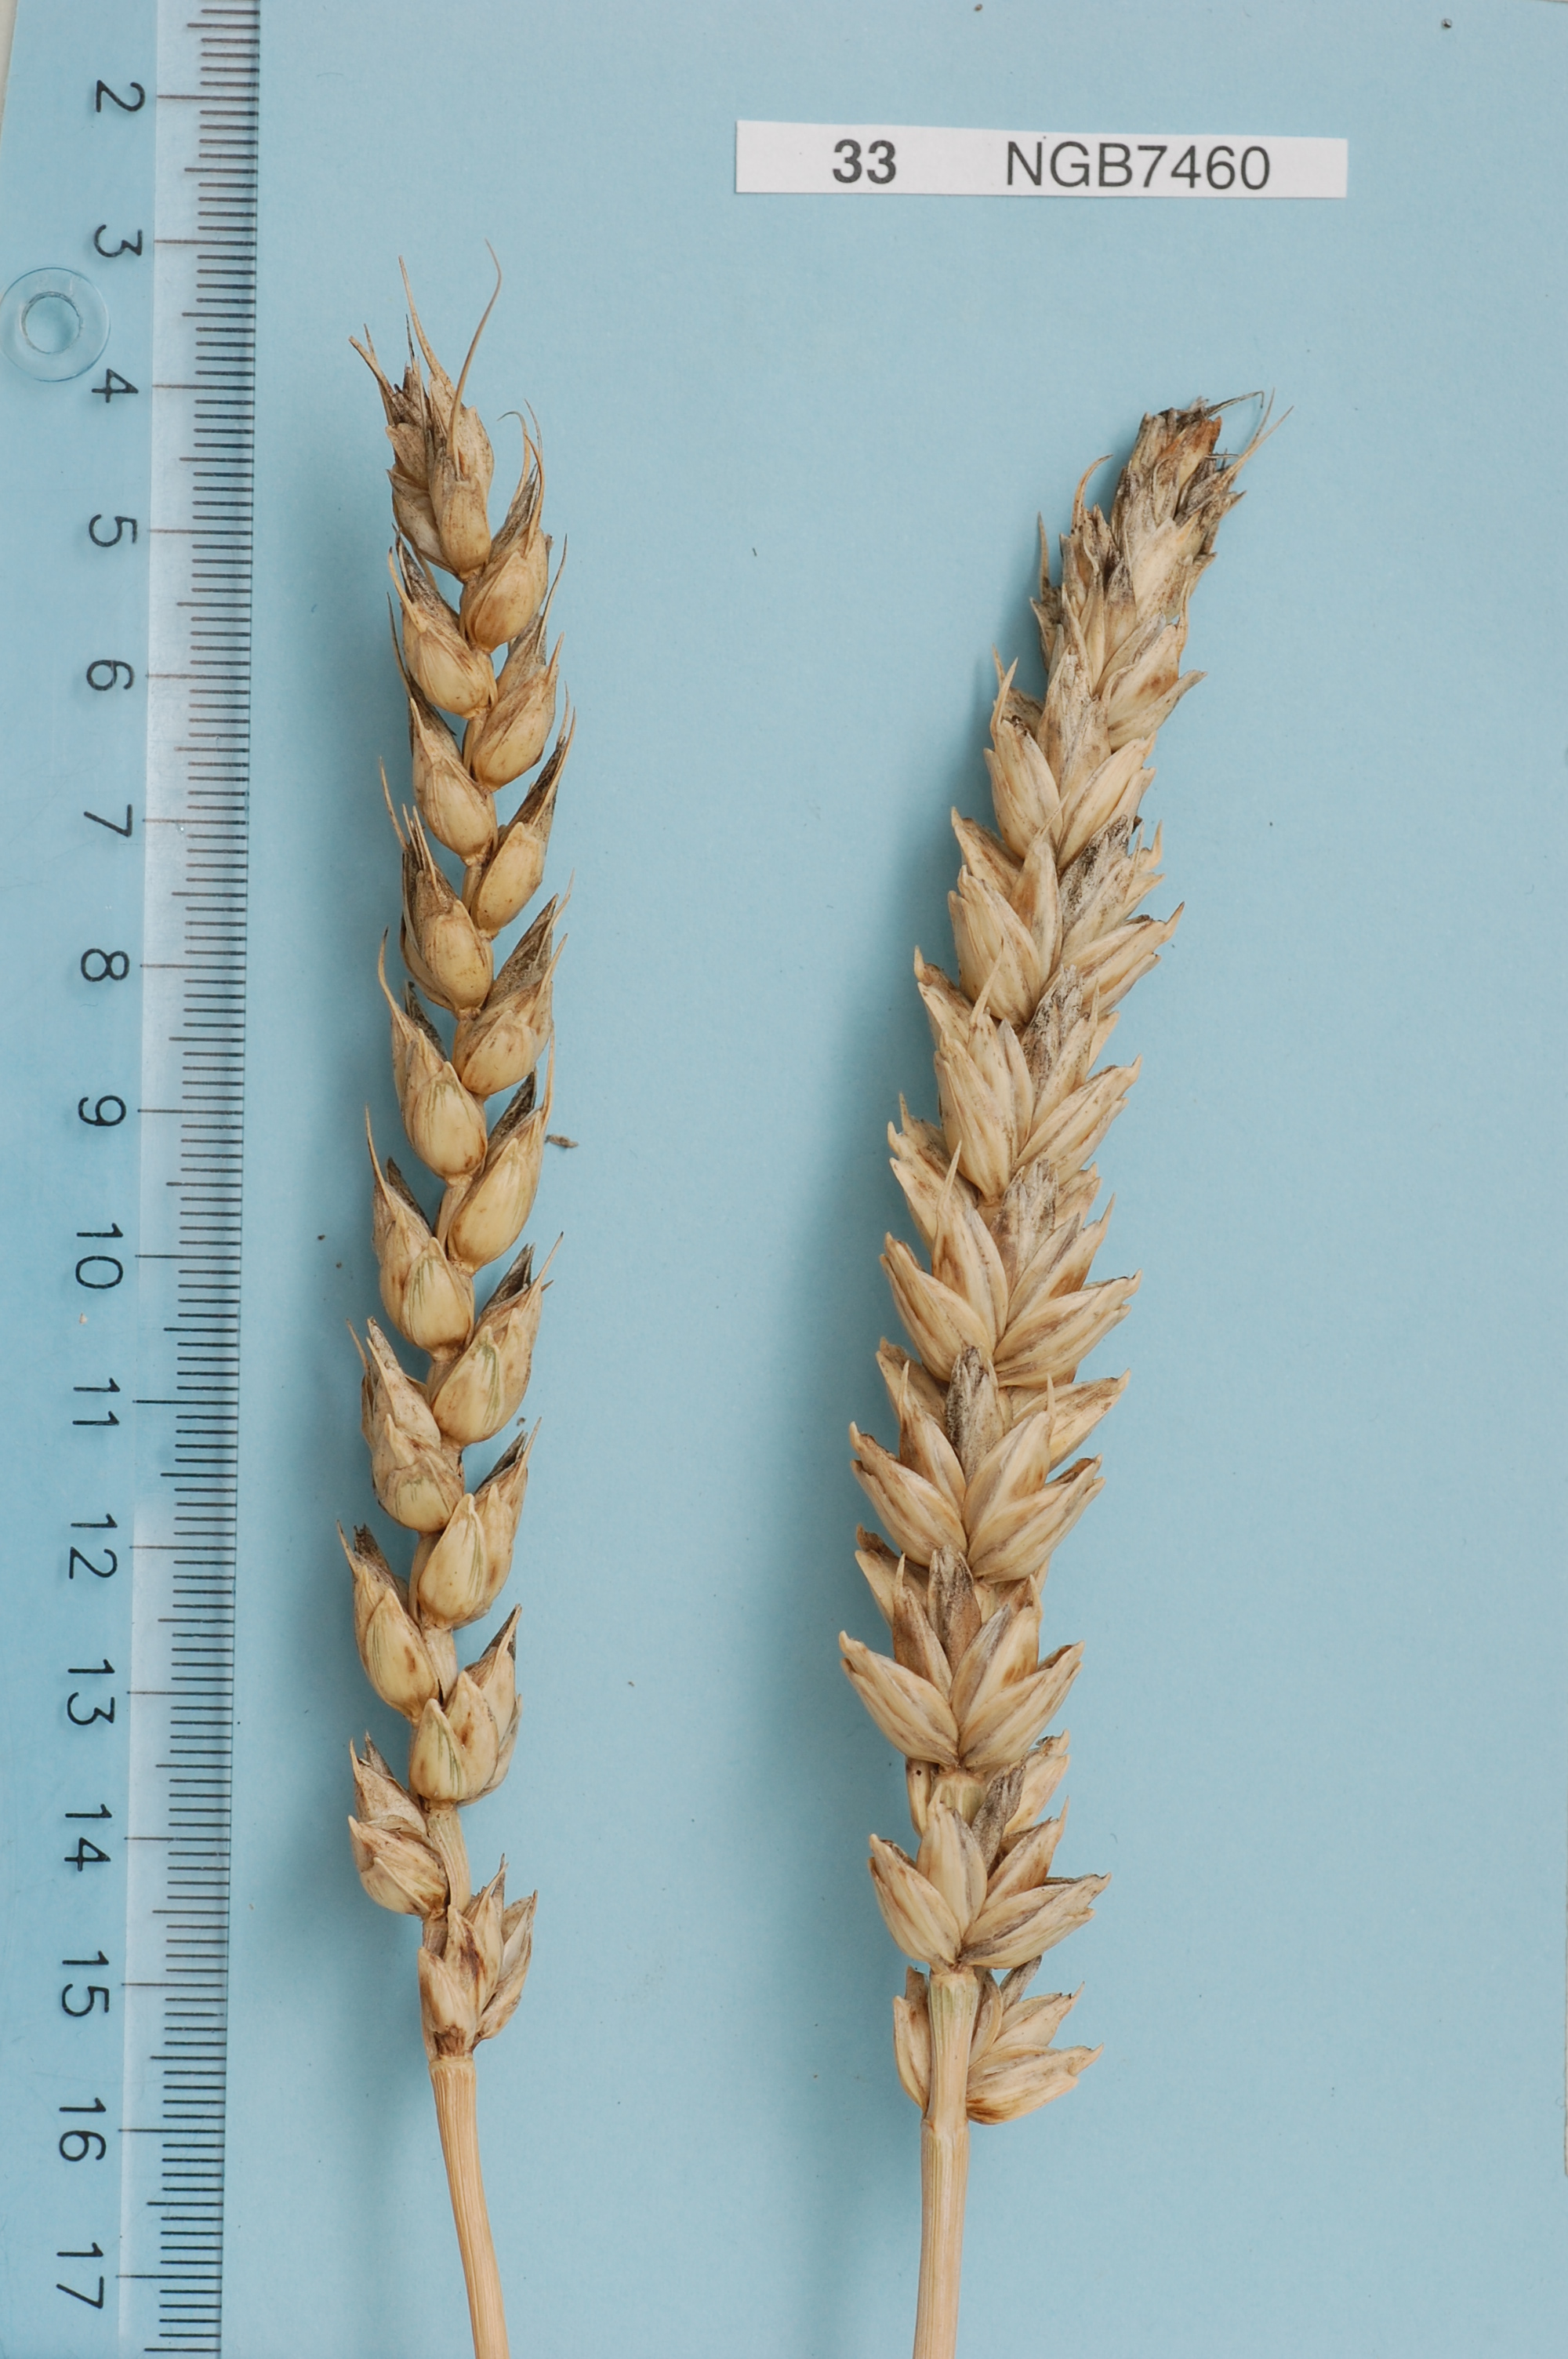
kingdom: Plantae
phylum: Tracheophyta
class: Liliopsida
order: Poales
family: Poaceae
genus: Triticum
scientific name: Triticum aestivum
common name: Common wheat
